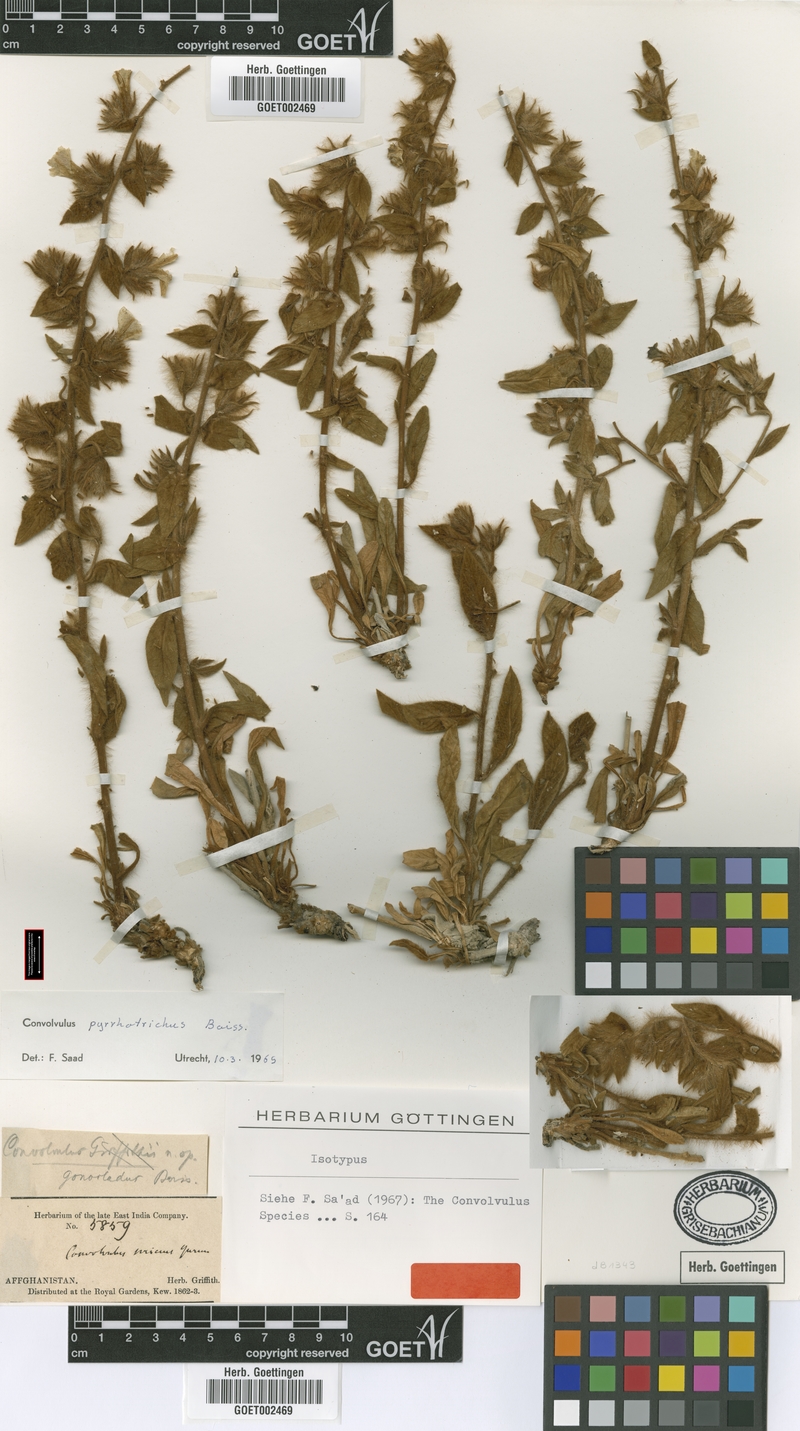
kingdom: Plantae
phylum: Tracheophyta
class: Magnoliopsida
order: Solanales
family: Convolvulaceae
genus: Convolvulus
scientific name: Convolvulus pyrrhotrichus
